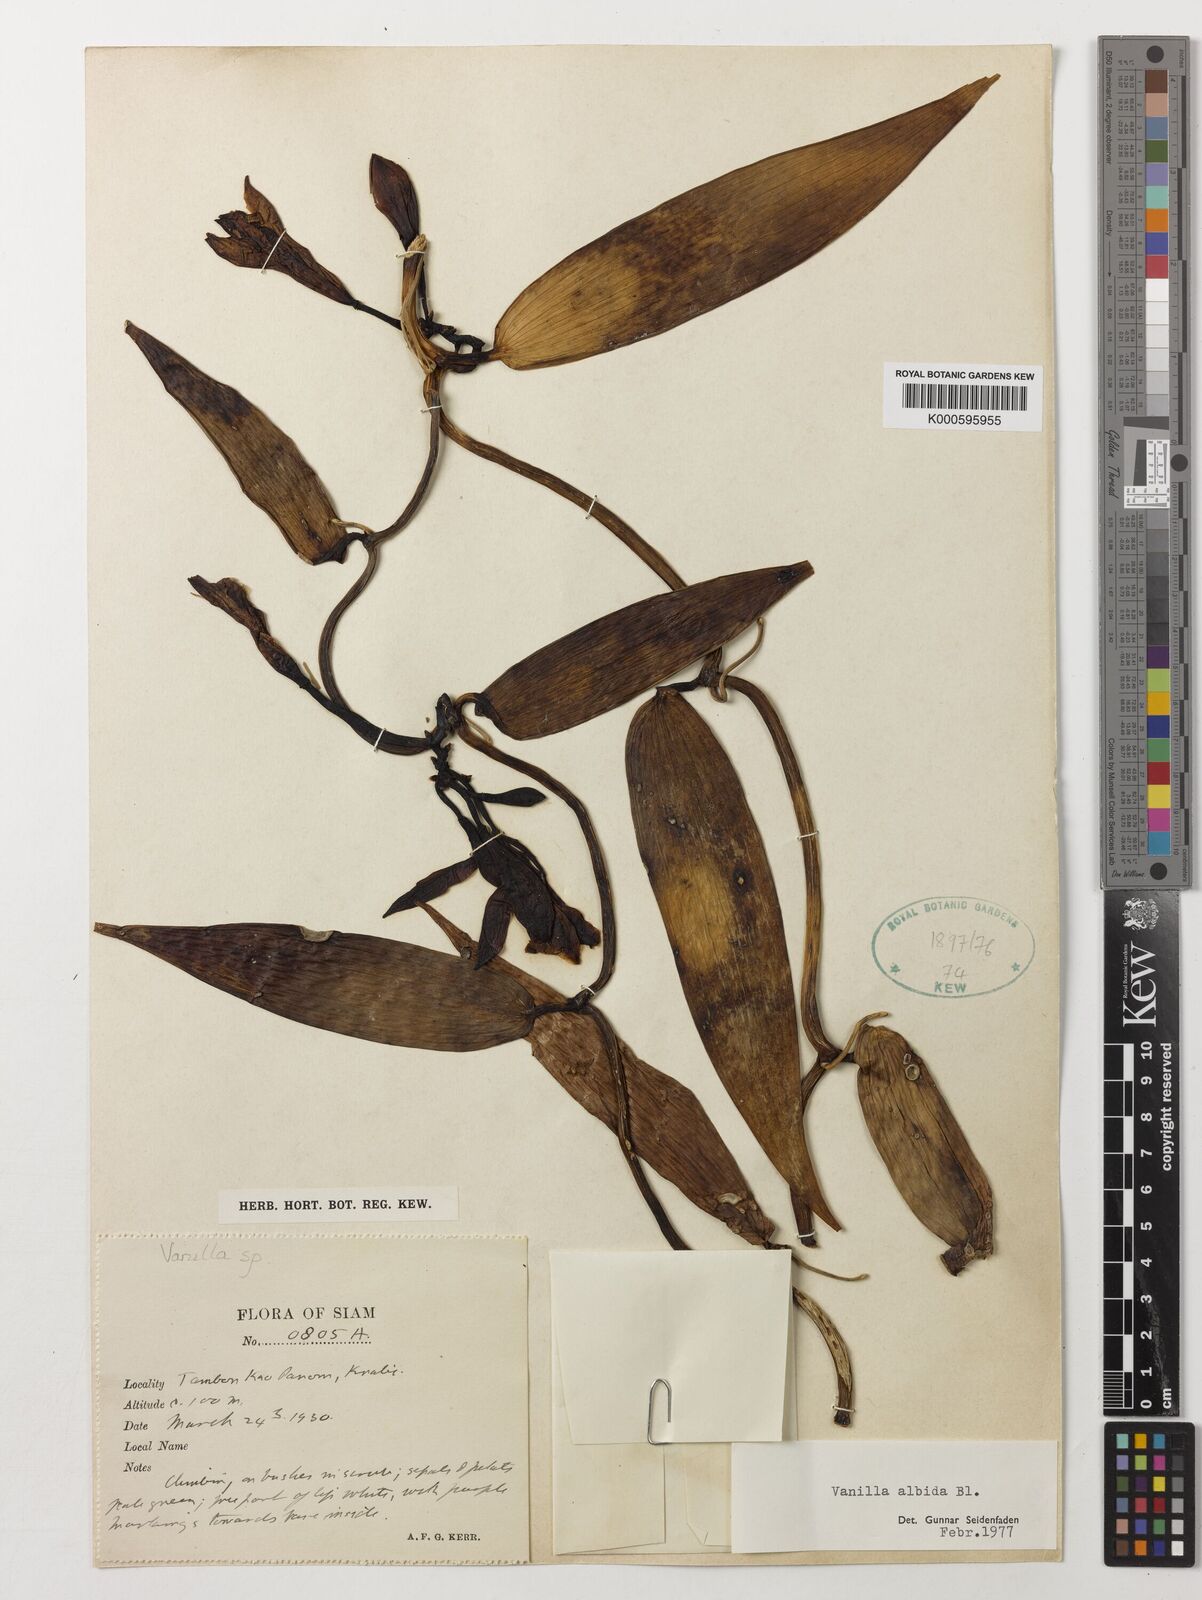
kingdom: Plantae
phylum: Tracheophyta
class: Liliopsida
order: Asparagales
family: Orchidaceae
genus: Vanilla
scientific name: Vanilla albida
